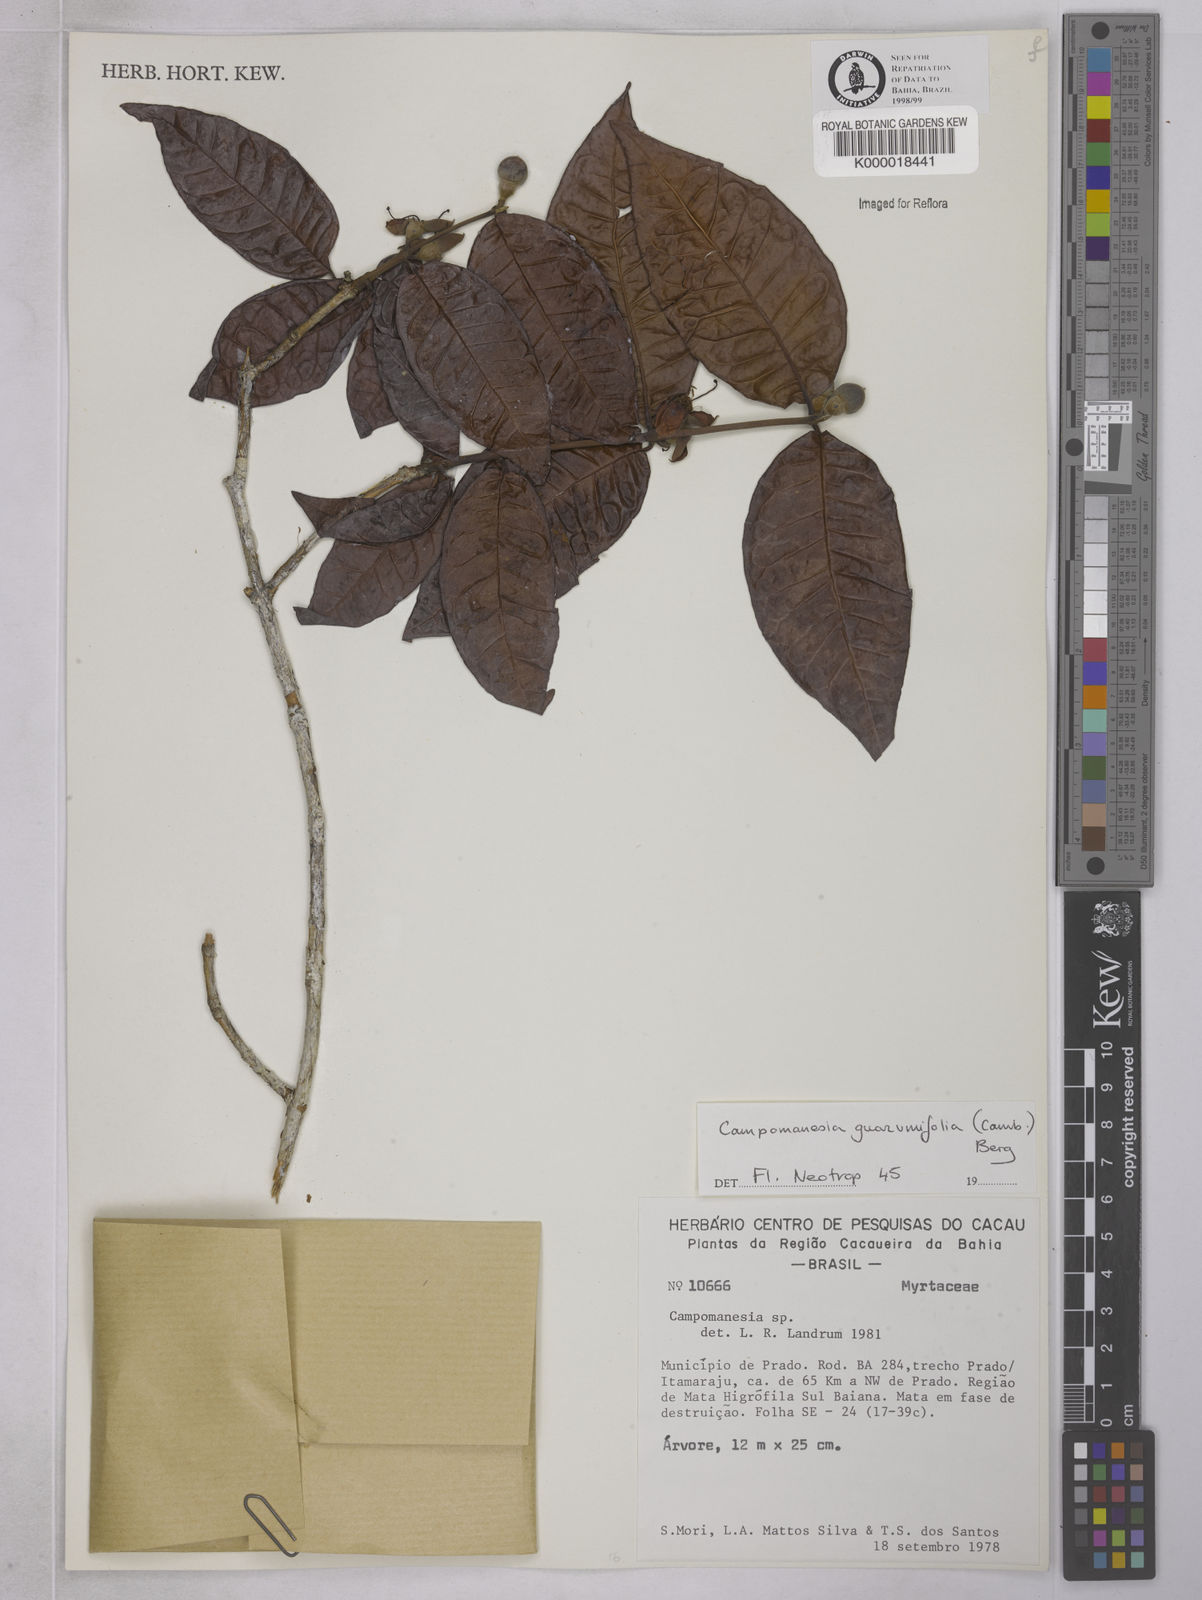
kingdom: Plantae
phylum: Tracheophyta
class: Magnoliopsida
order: Myrtales
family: Myrtaceae
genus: Campomanesia
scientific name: Campomanesia guazumifolia
